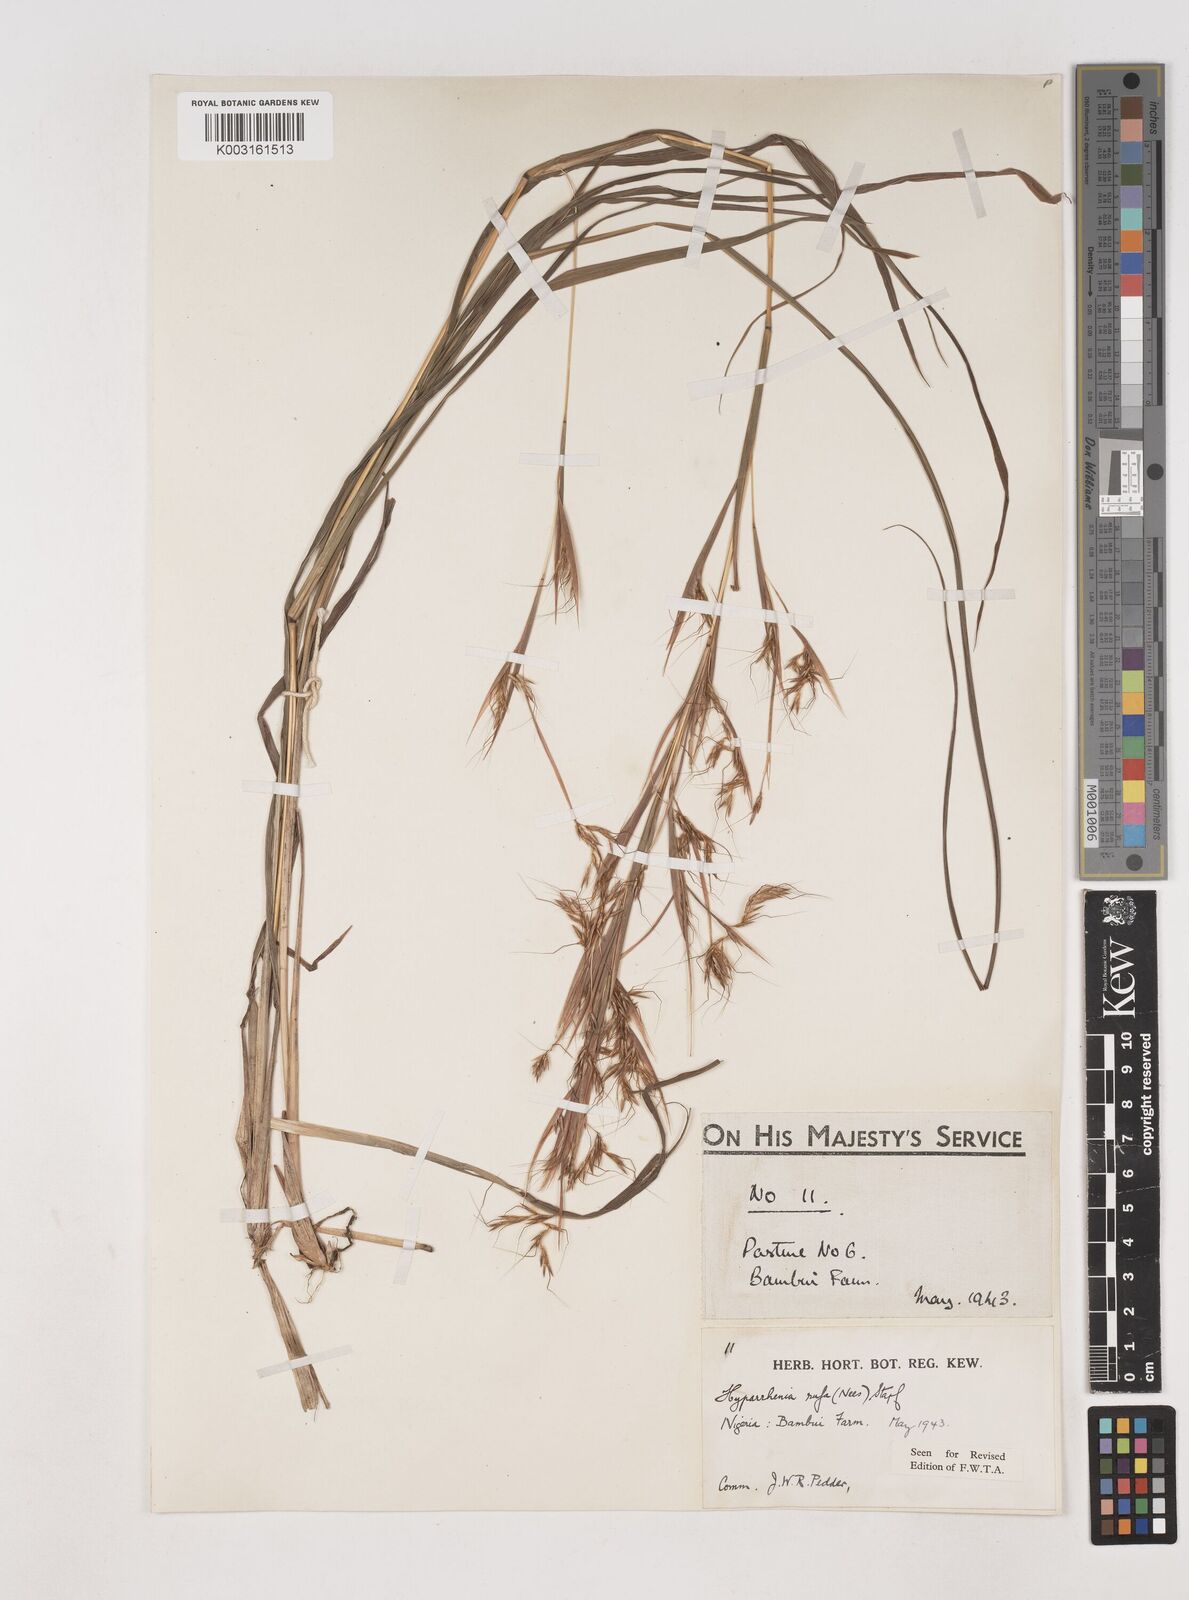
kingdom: Plantae
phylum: Tracheophyta
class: Liliopsida
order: Poales
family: Poaceae
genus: Hyparrhenia
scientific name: Hyparrhenia rufa
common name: Jaraguagrass
